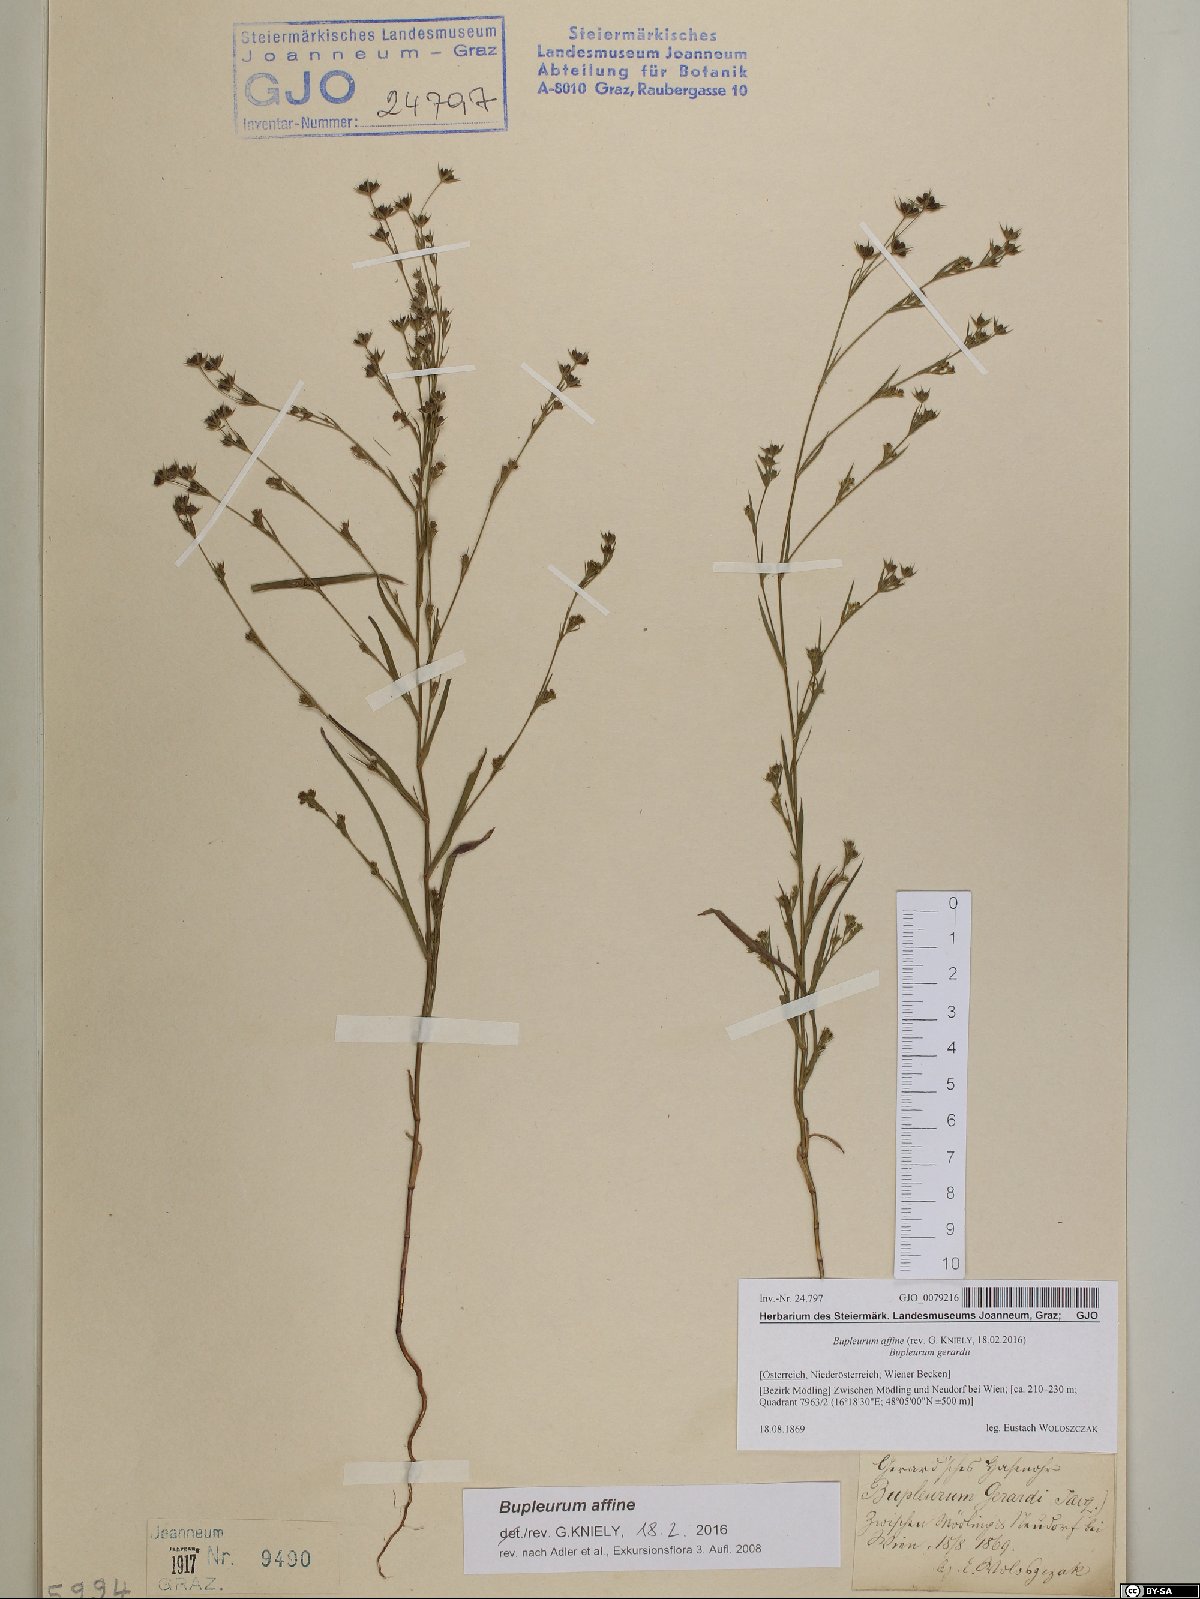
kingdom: Plantae
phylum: Tracheophyta
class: Magnoliopsida
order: Apiales
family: Apiaceae
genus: Bupleurum
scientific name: Bupleurum affine
